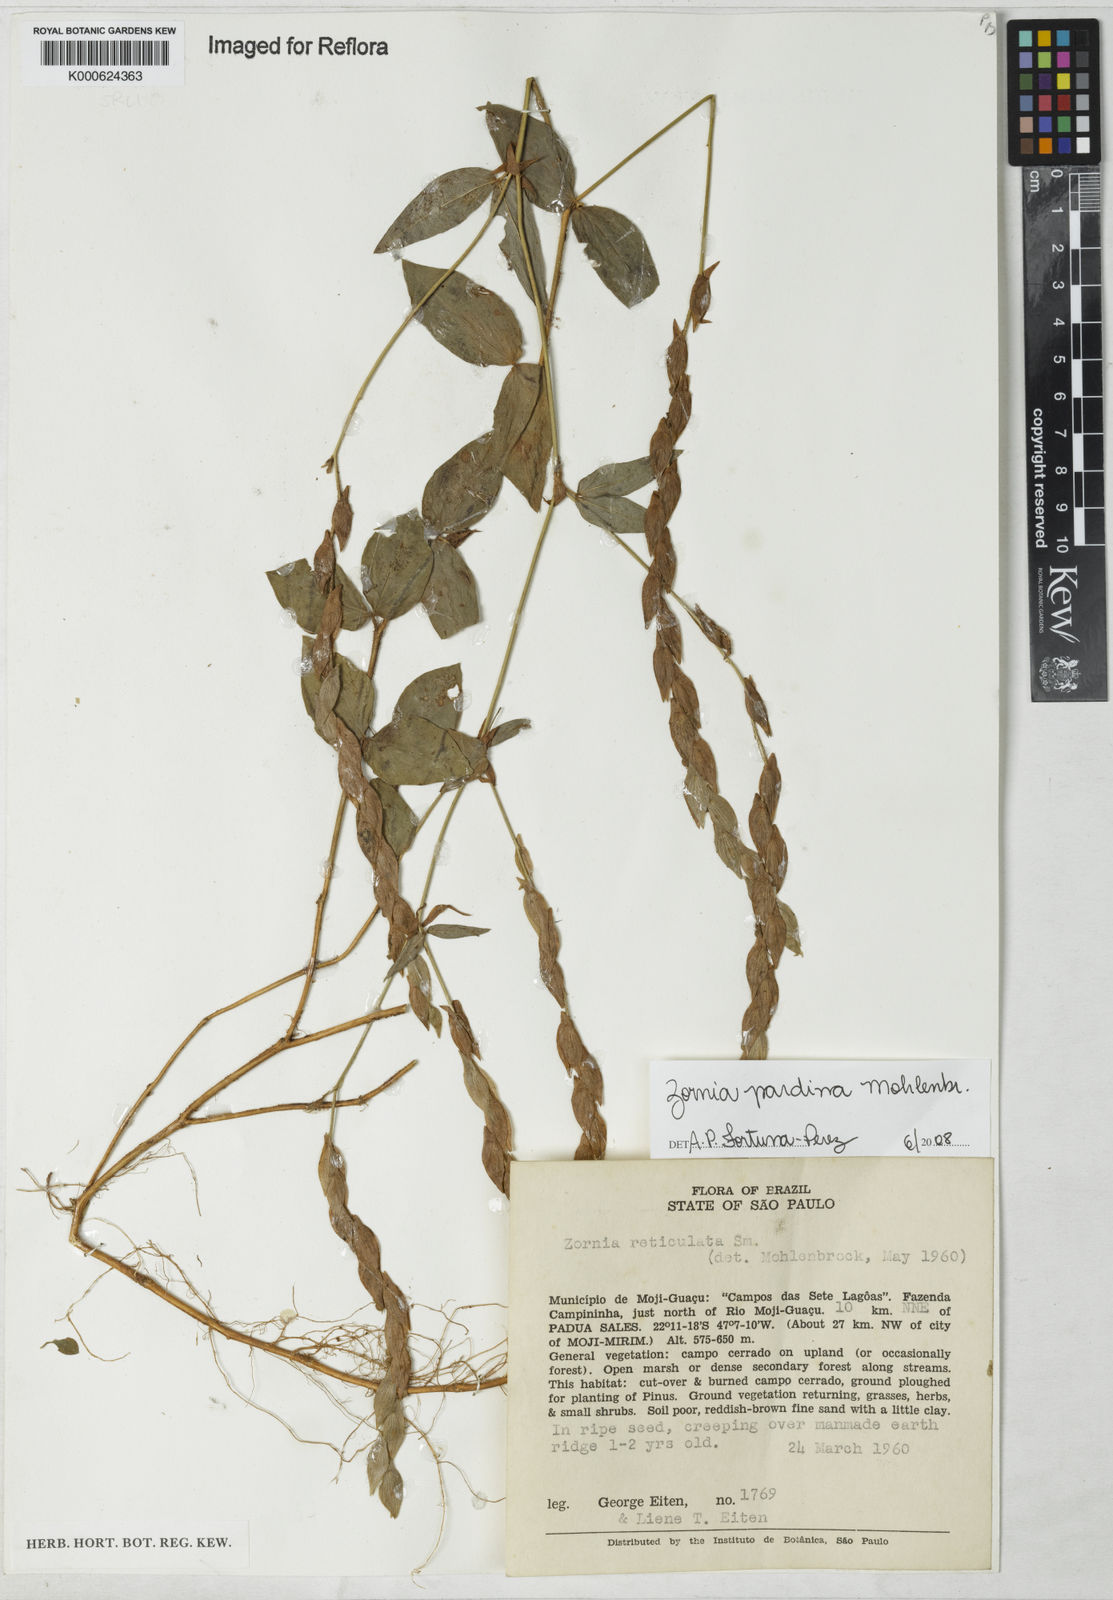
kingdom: Plantae
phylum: Tracheophyta
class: Magnoliopsida
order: Fabales
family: Fabaceae
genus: Zornia
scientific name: Zornia pardina
